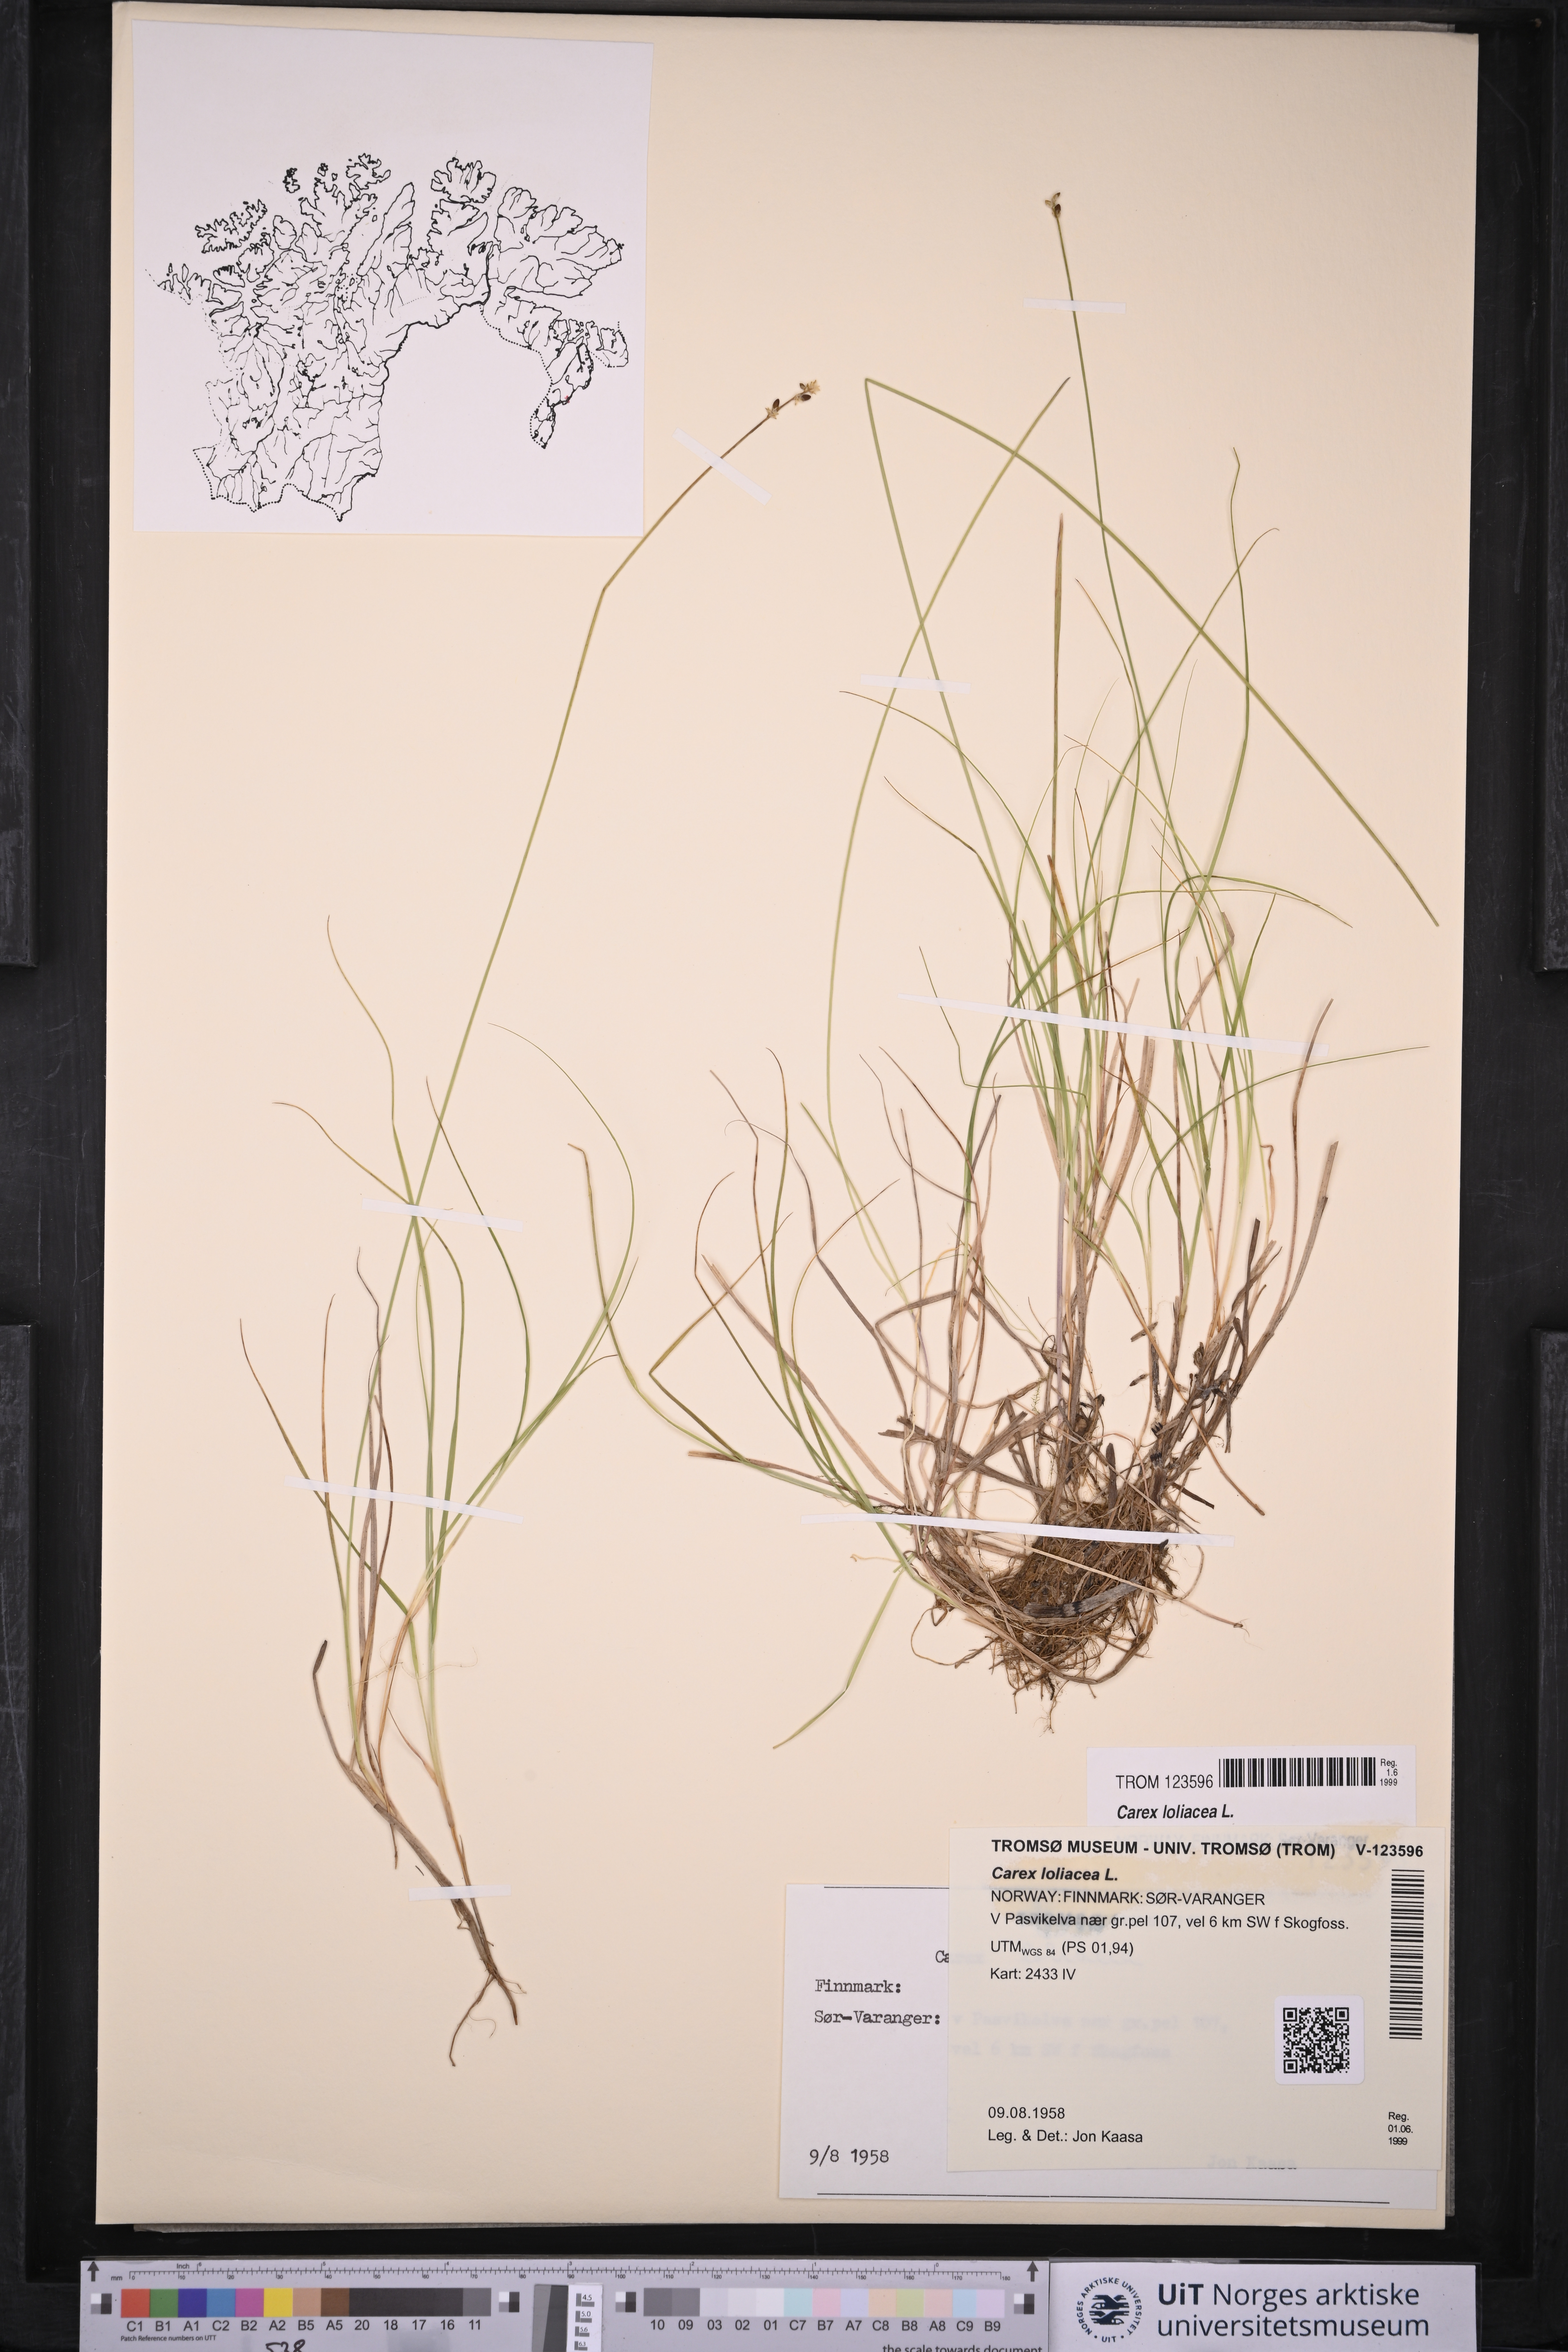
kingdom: Plantae
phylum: Tracheophyta
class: Liliopsida
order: Poales
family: Cyperaceae
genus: Carex
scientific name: Carex loliacea
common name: Ryegrass sedge
